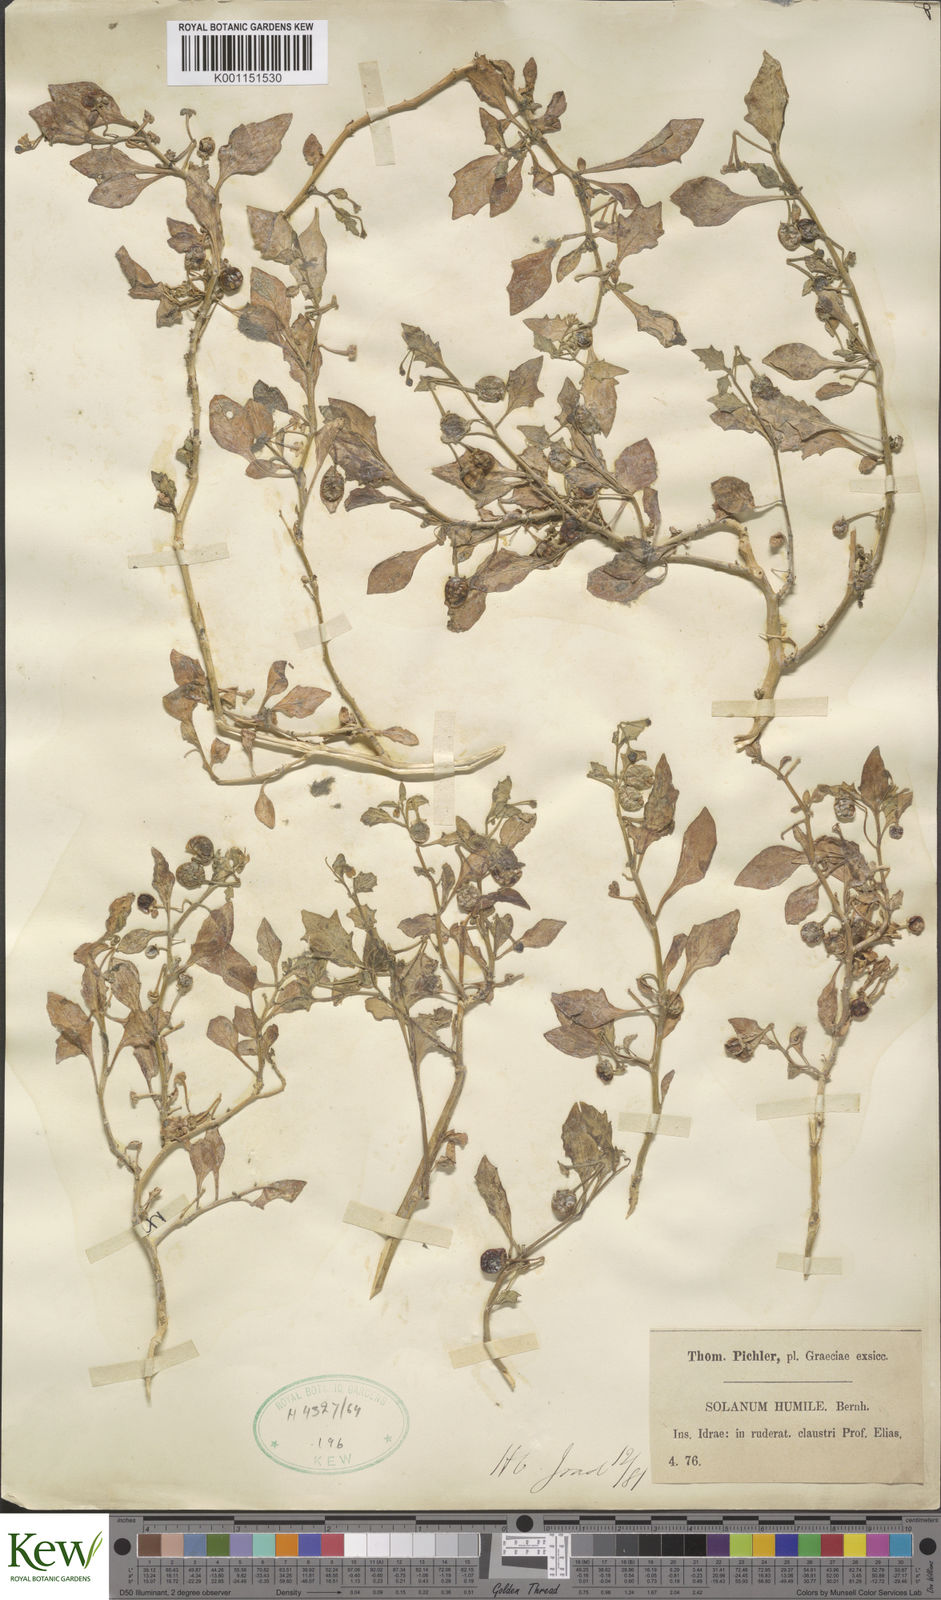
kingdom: Plantae
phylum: Tracheophyta
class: Magnoliopsida
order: Solanales
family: Solanaceae
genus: Solanum
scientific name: Solanum villosum
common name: Red nightshade
